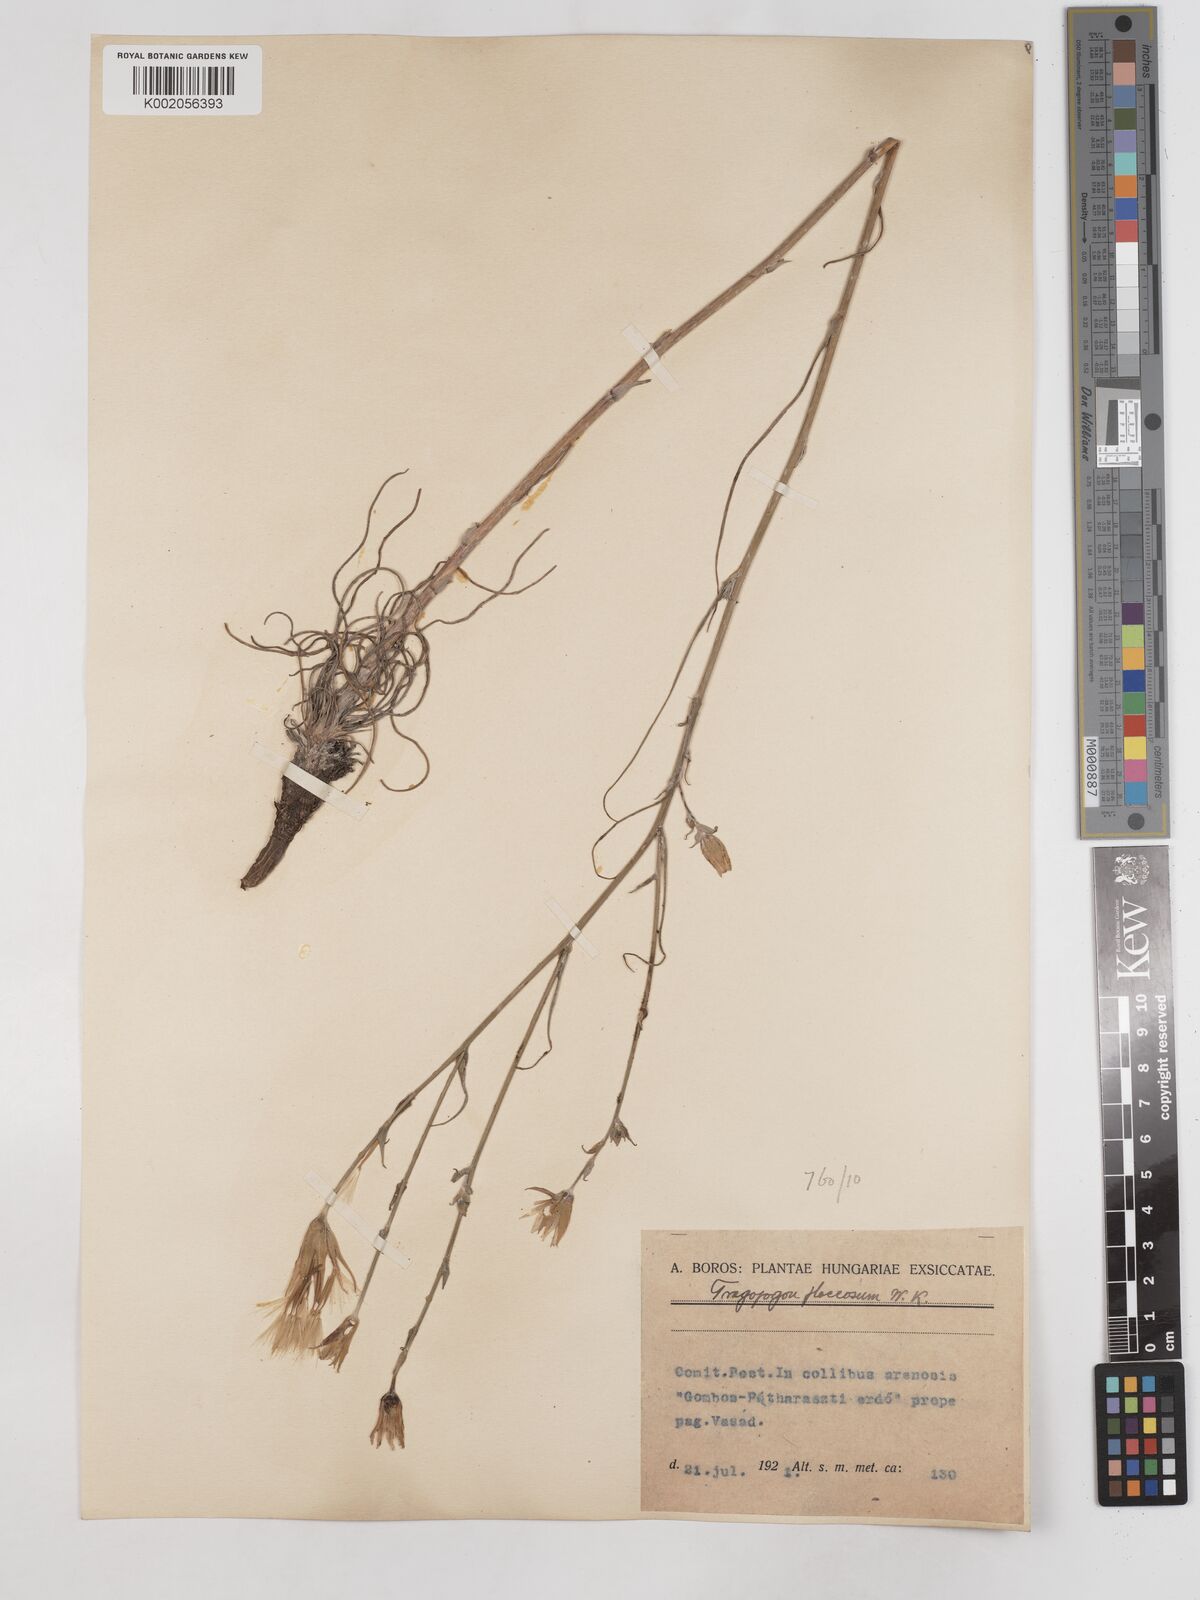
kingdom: Plantae
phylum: Tracheophyta
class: Magnoliopsida
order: Asterales
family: Asteraceae
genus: Tragopogon
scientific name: Tragopogon floccosus
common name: Woolly goatsbeard
